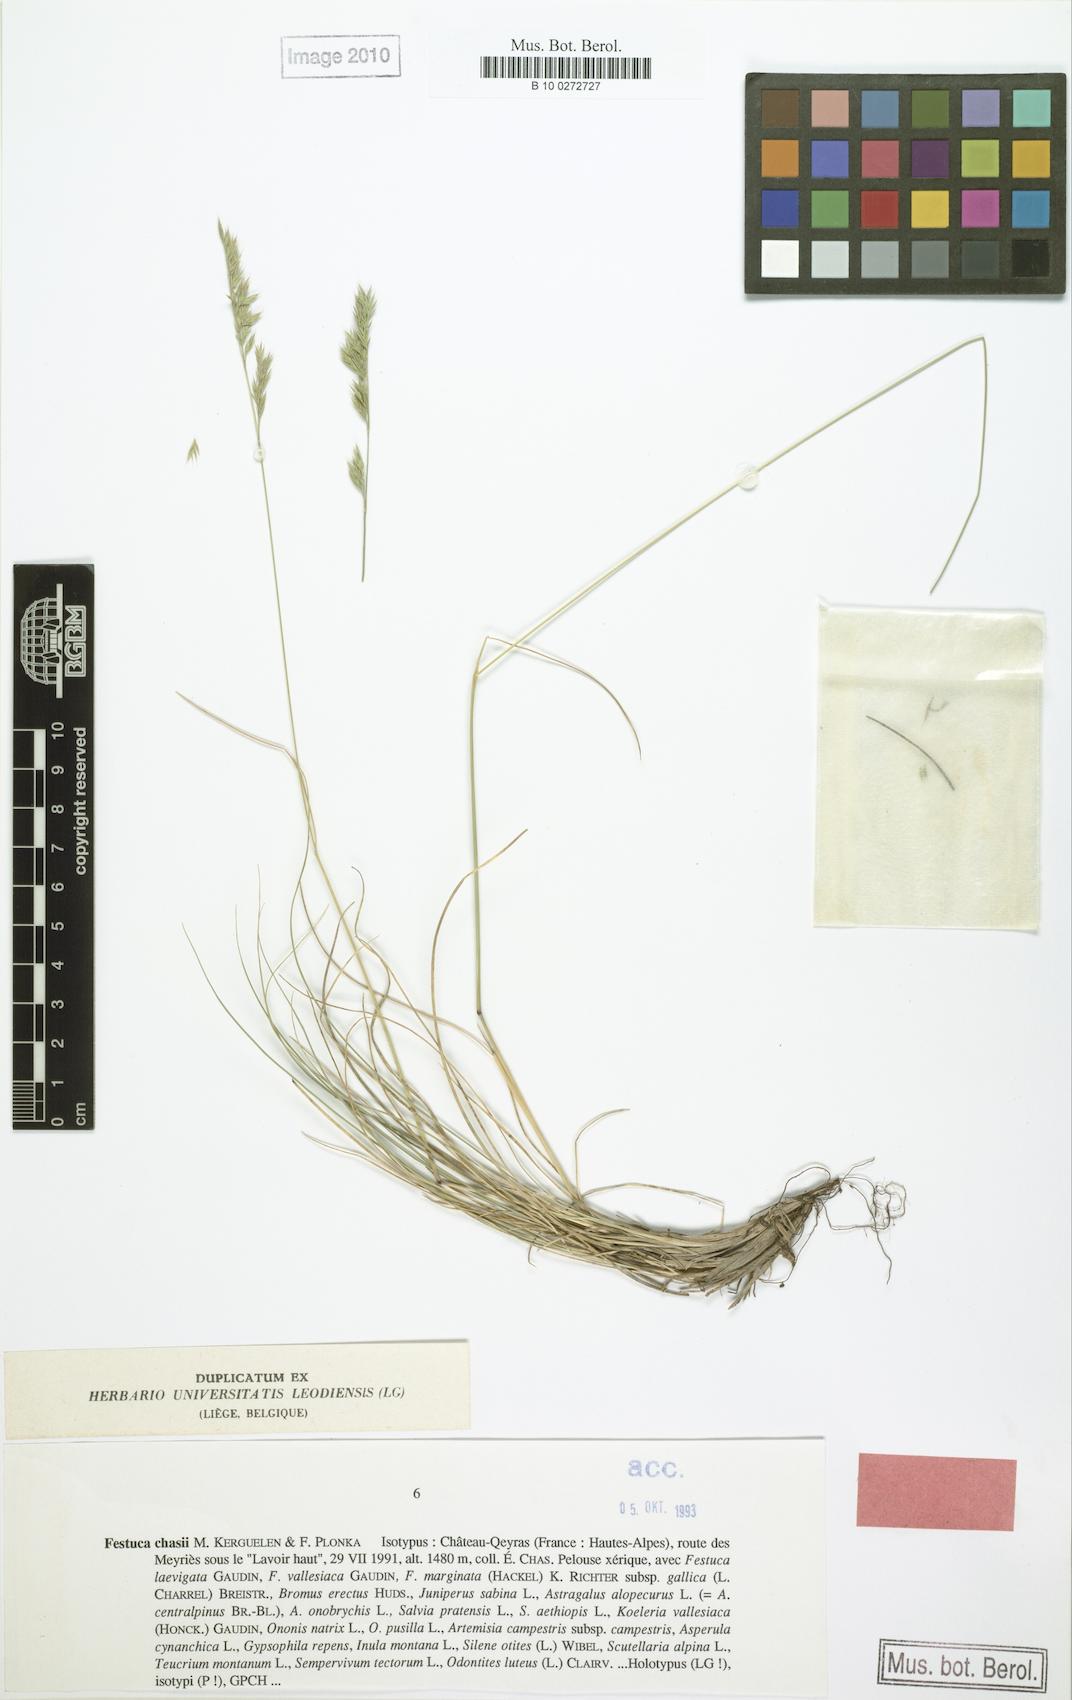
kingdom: Plantae
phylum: Tracheophyta
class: Liliopsida
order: Poales
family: Poaceae
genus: Festuca
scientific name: Festuca chasii
